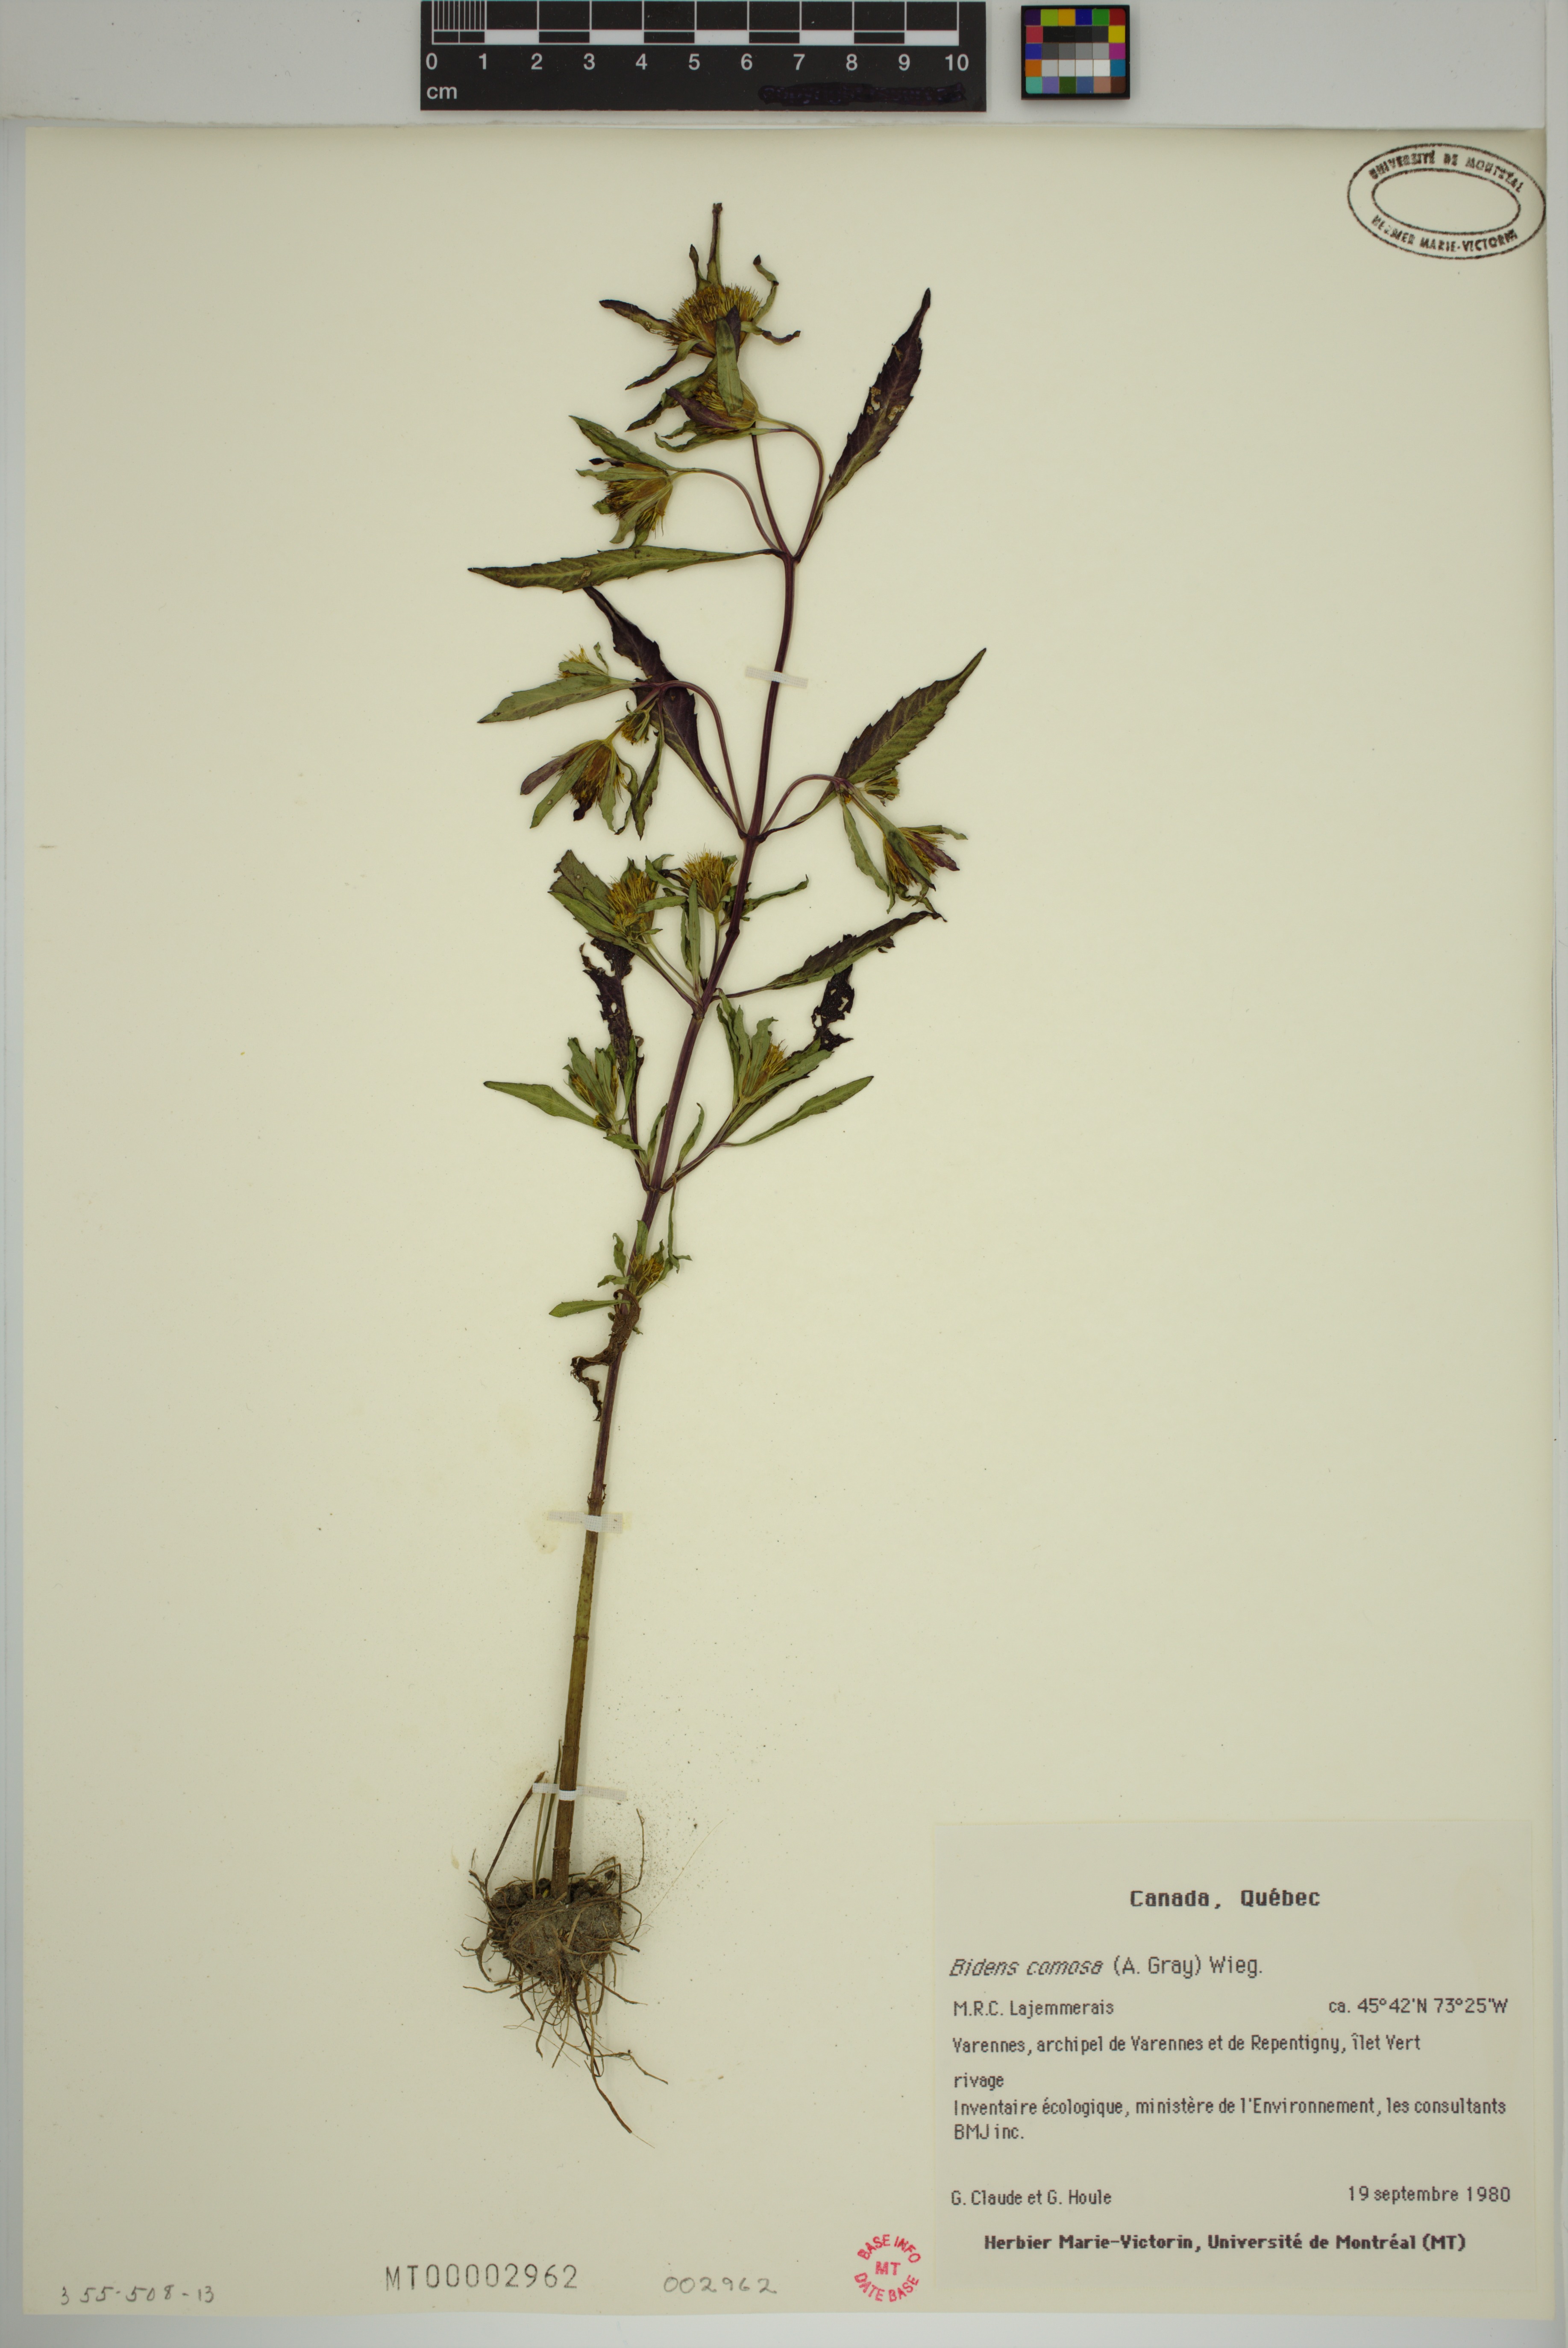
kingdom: Plantae
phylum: Tracheophyta
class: Magnoliopsida
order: Asterales
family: Asteraceae
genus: Bidens
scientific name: Bidens tripartita
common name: Trifid bur-marigold
